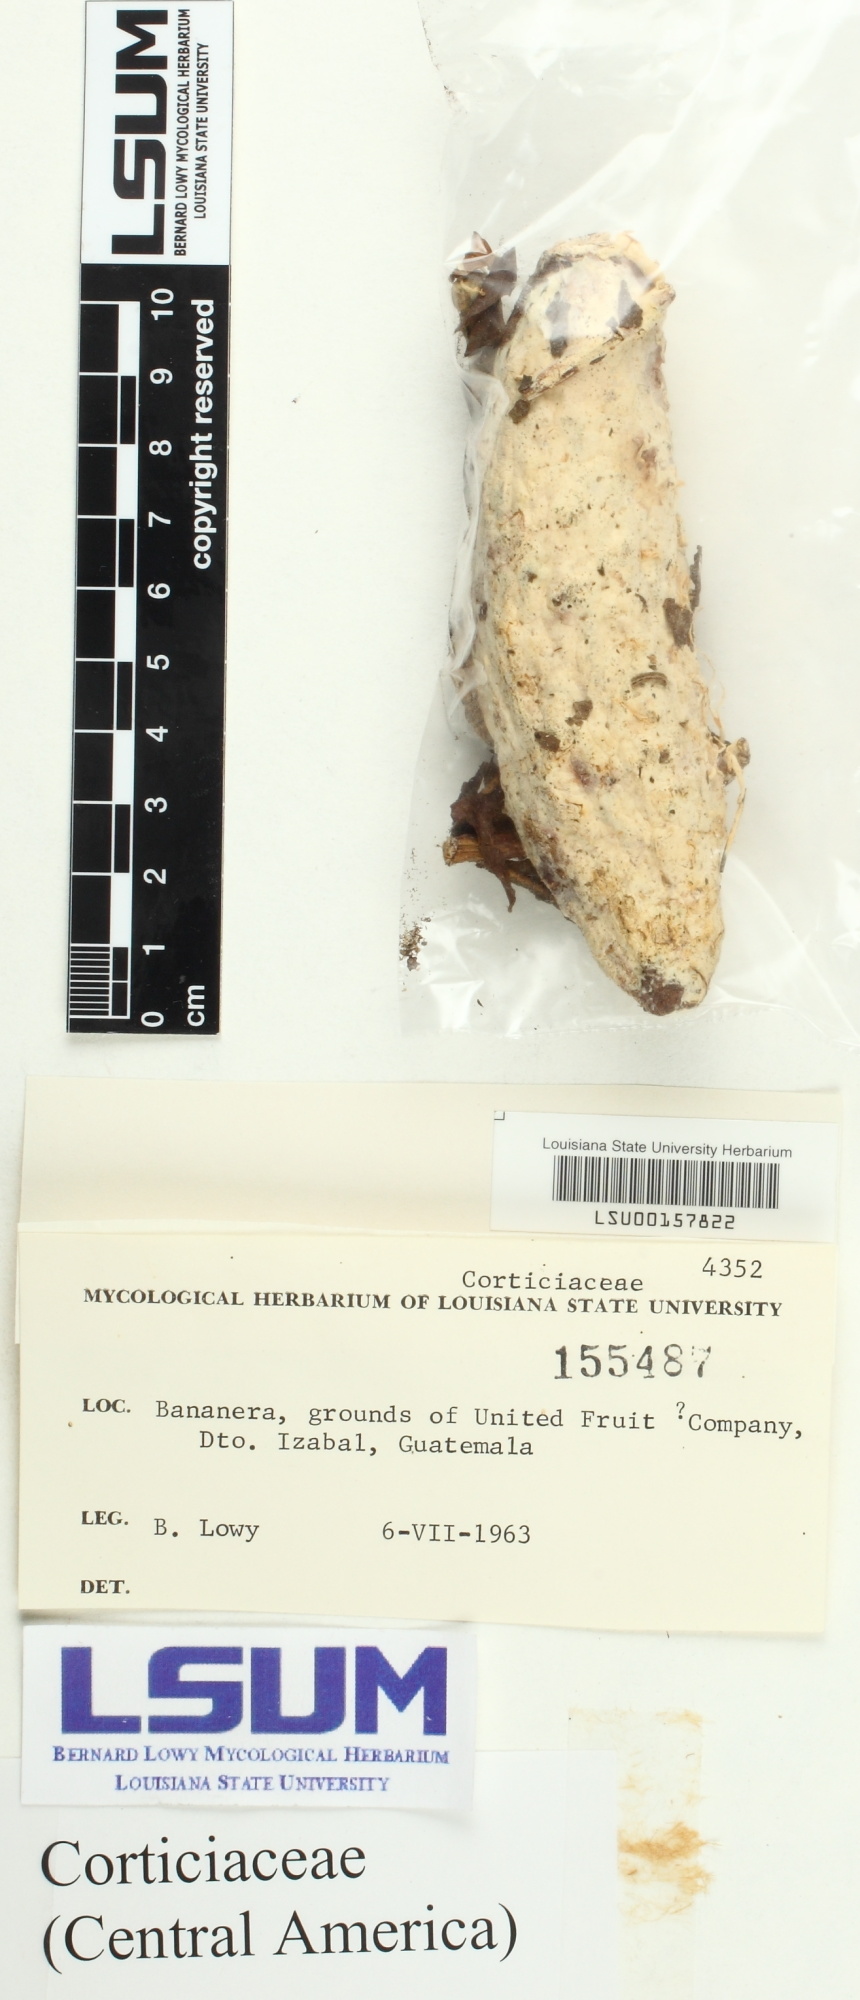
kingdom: Fungi
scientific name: Fungi
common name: Fungi
